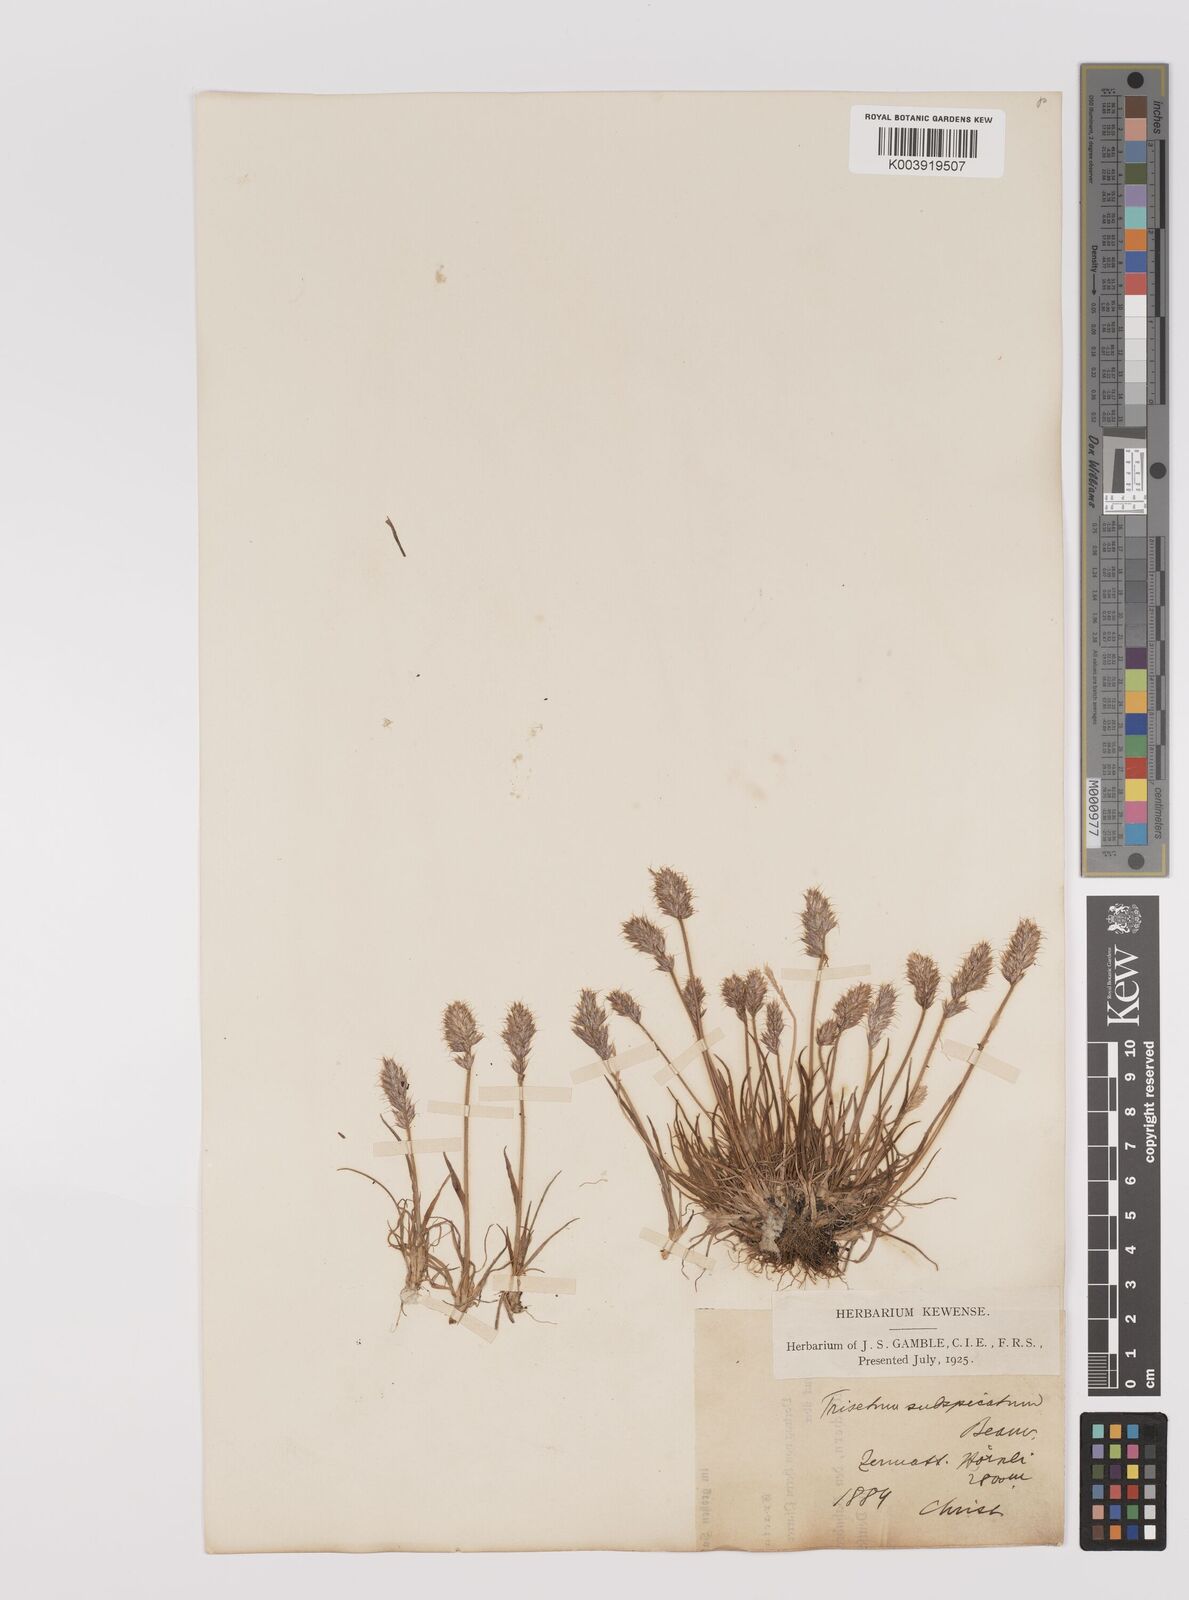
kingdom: Plantae
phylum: Tracheophyta
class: Liliopsida
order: Poales
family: Poaceae
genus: Koeleria
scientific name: Koeleria spicata
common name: Mountain trisetum
